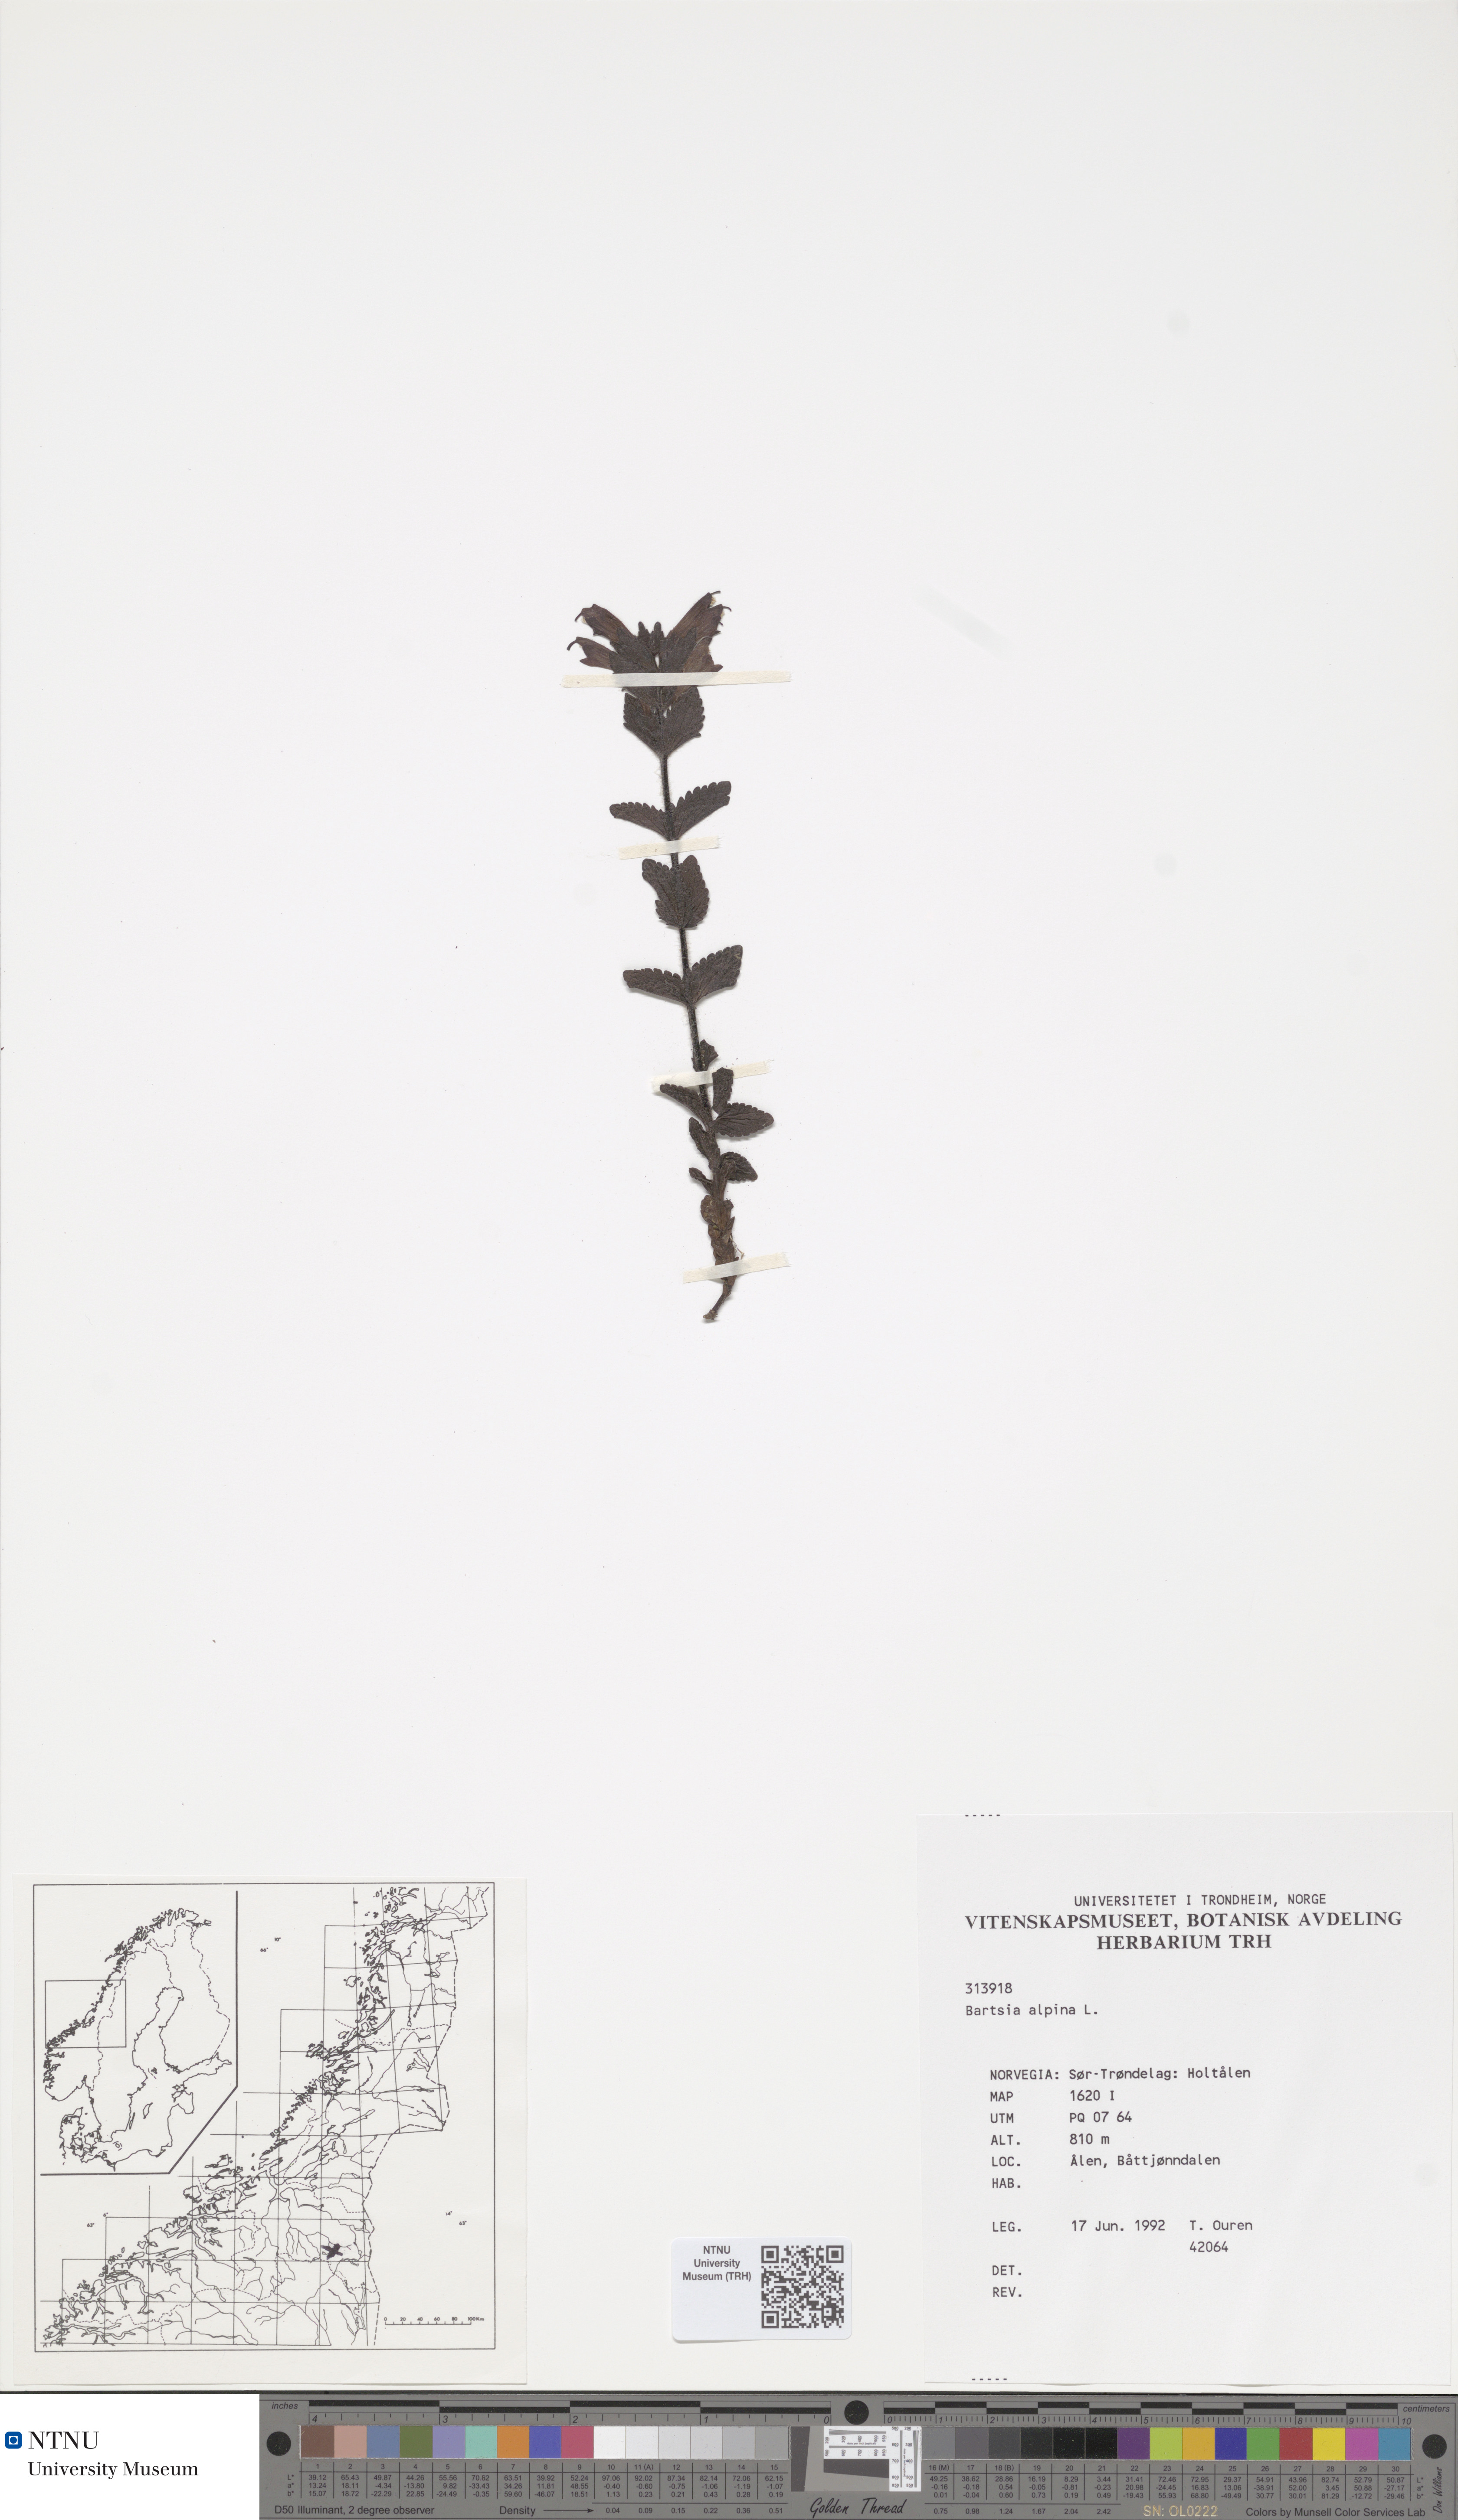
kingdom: Plantae
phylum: Tracheophyta
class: Magnoliopsida
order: Lamiales
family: Orobanchaceae
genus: Bartsia
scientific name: Bartsia alpina
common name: Alpine bartsia
